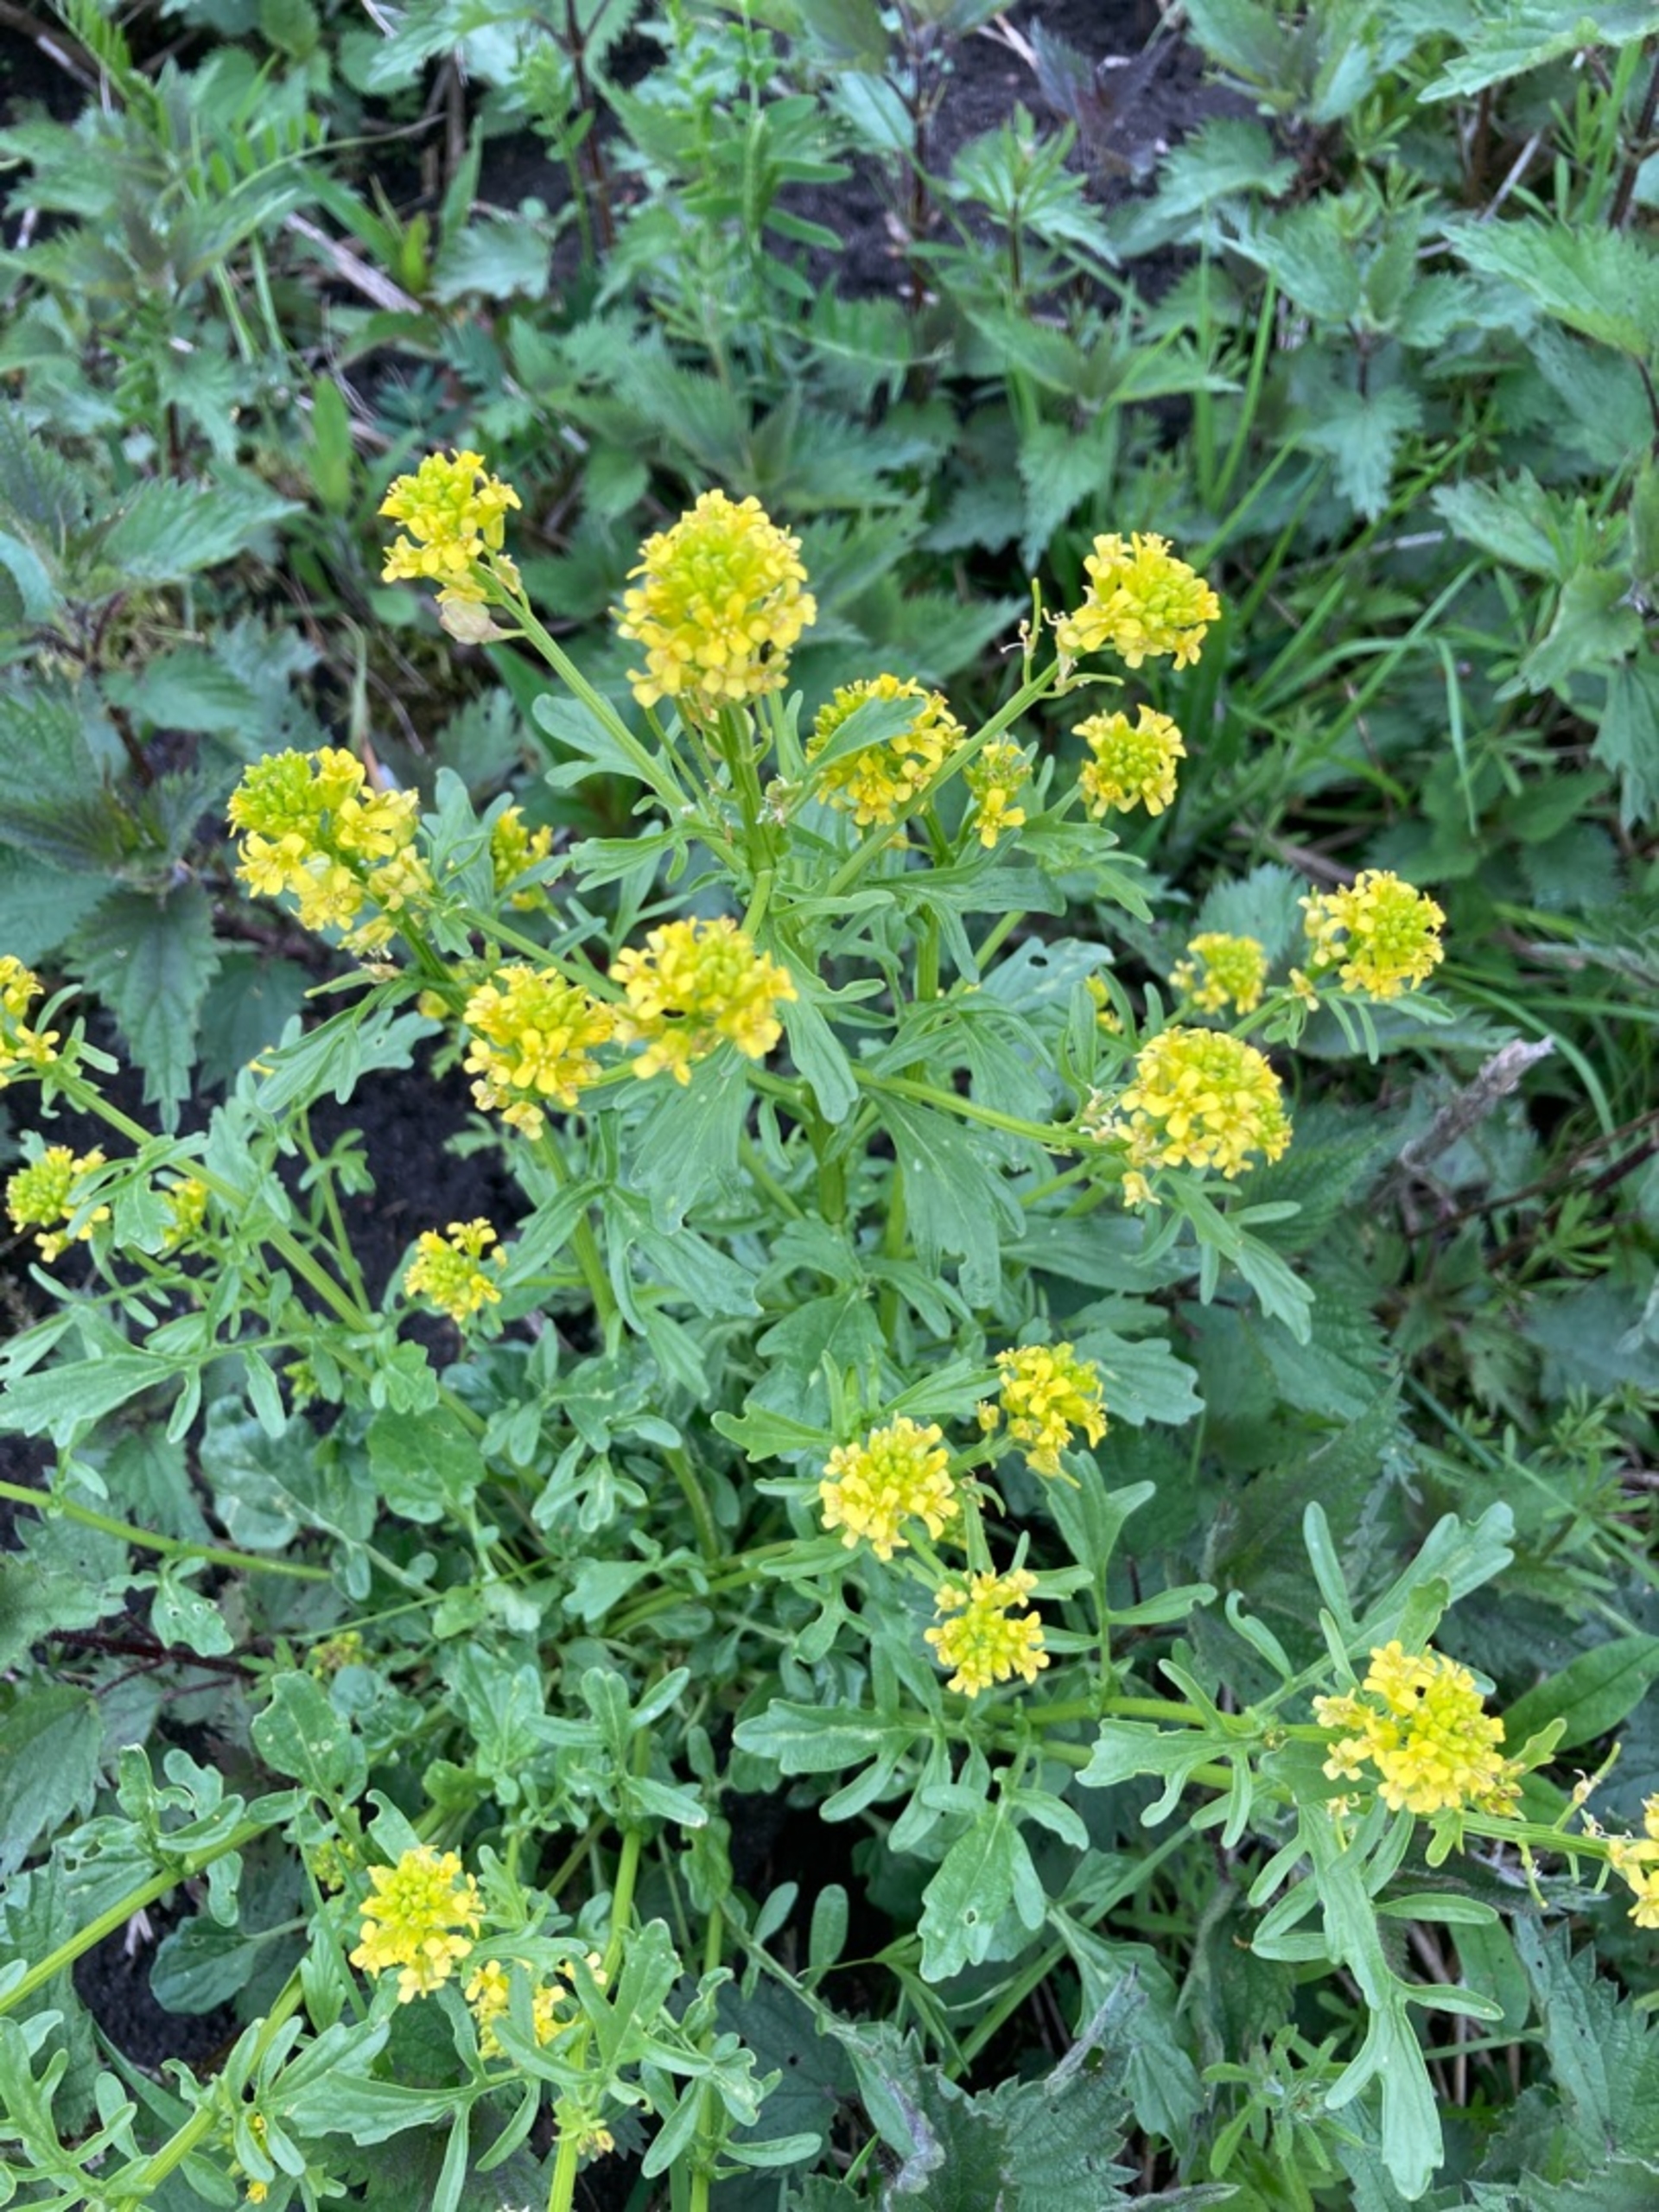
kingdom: Plantae
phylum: Tracheophyta
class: Magnoliopsida
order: Brassicales
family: Brassicaceae
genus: Barbarea
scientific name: Barbarea
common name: Vinterkarseslægten
